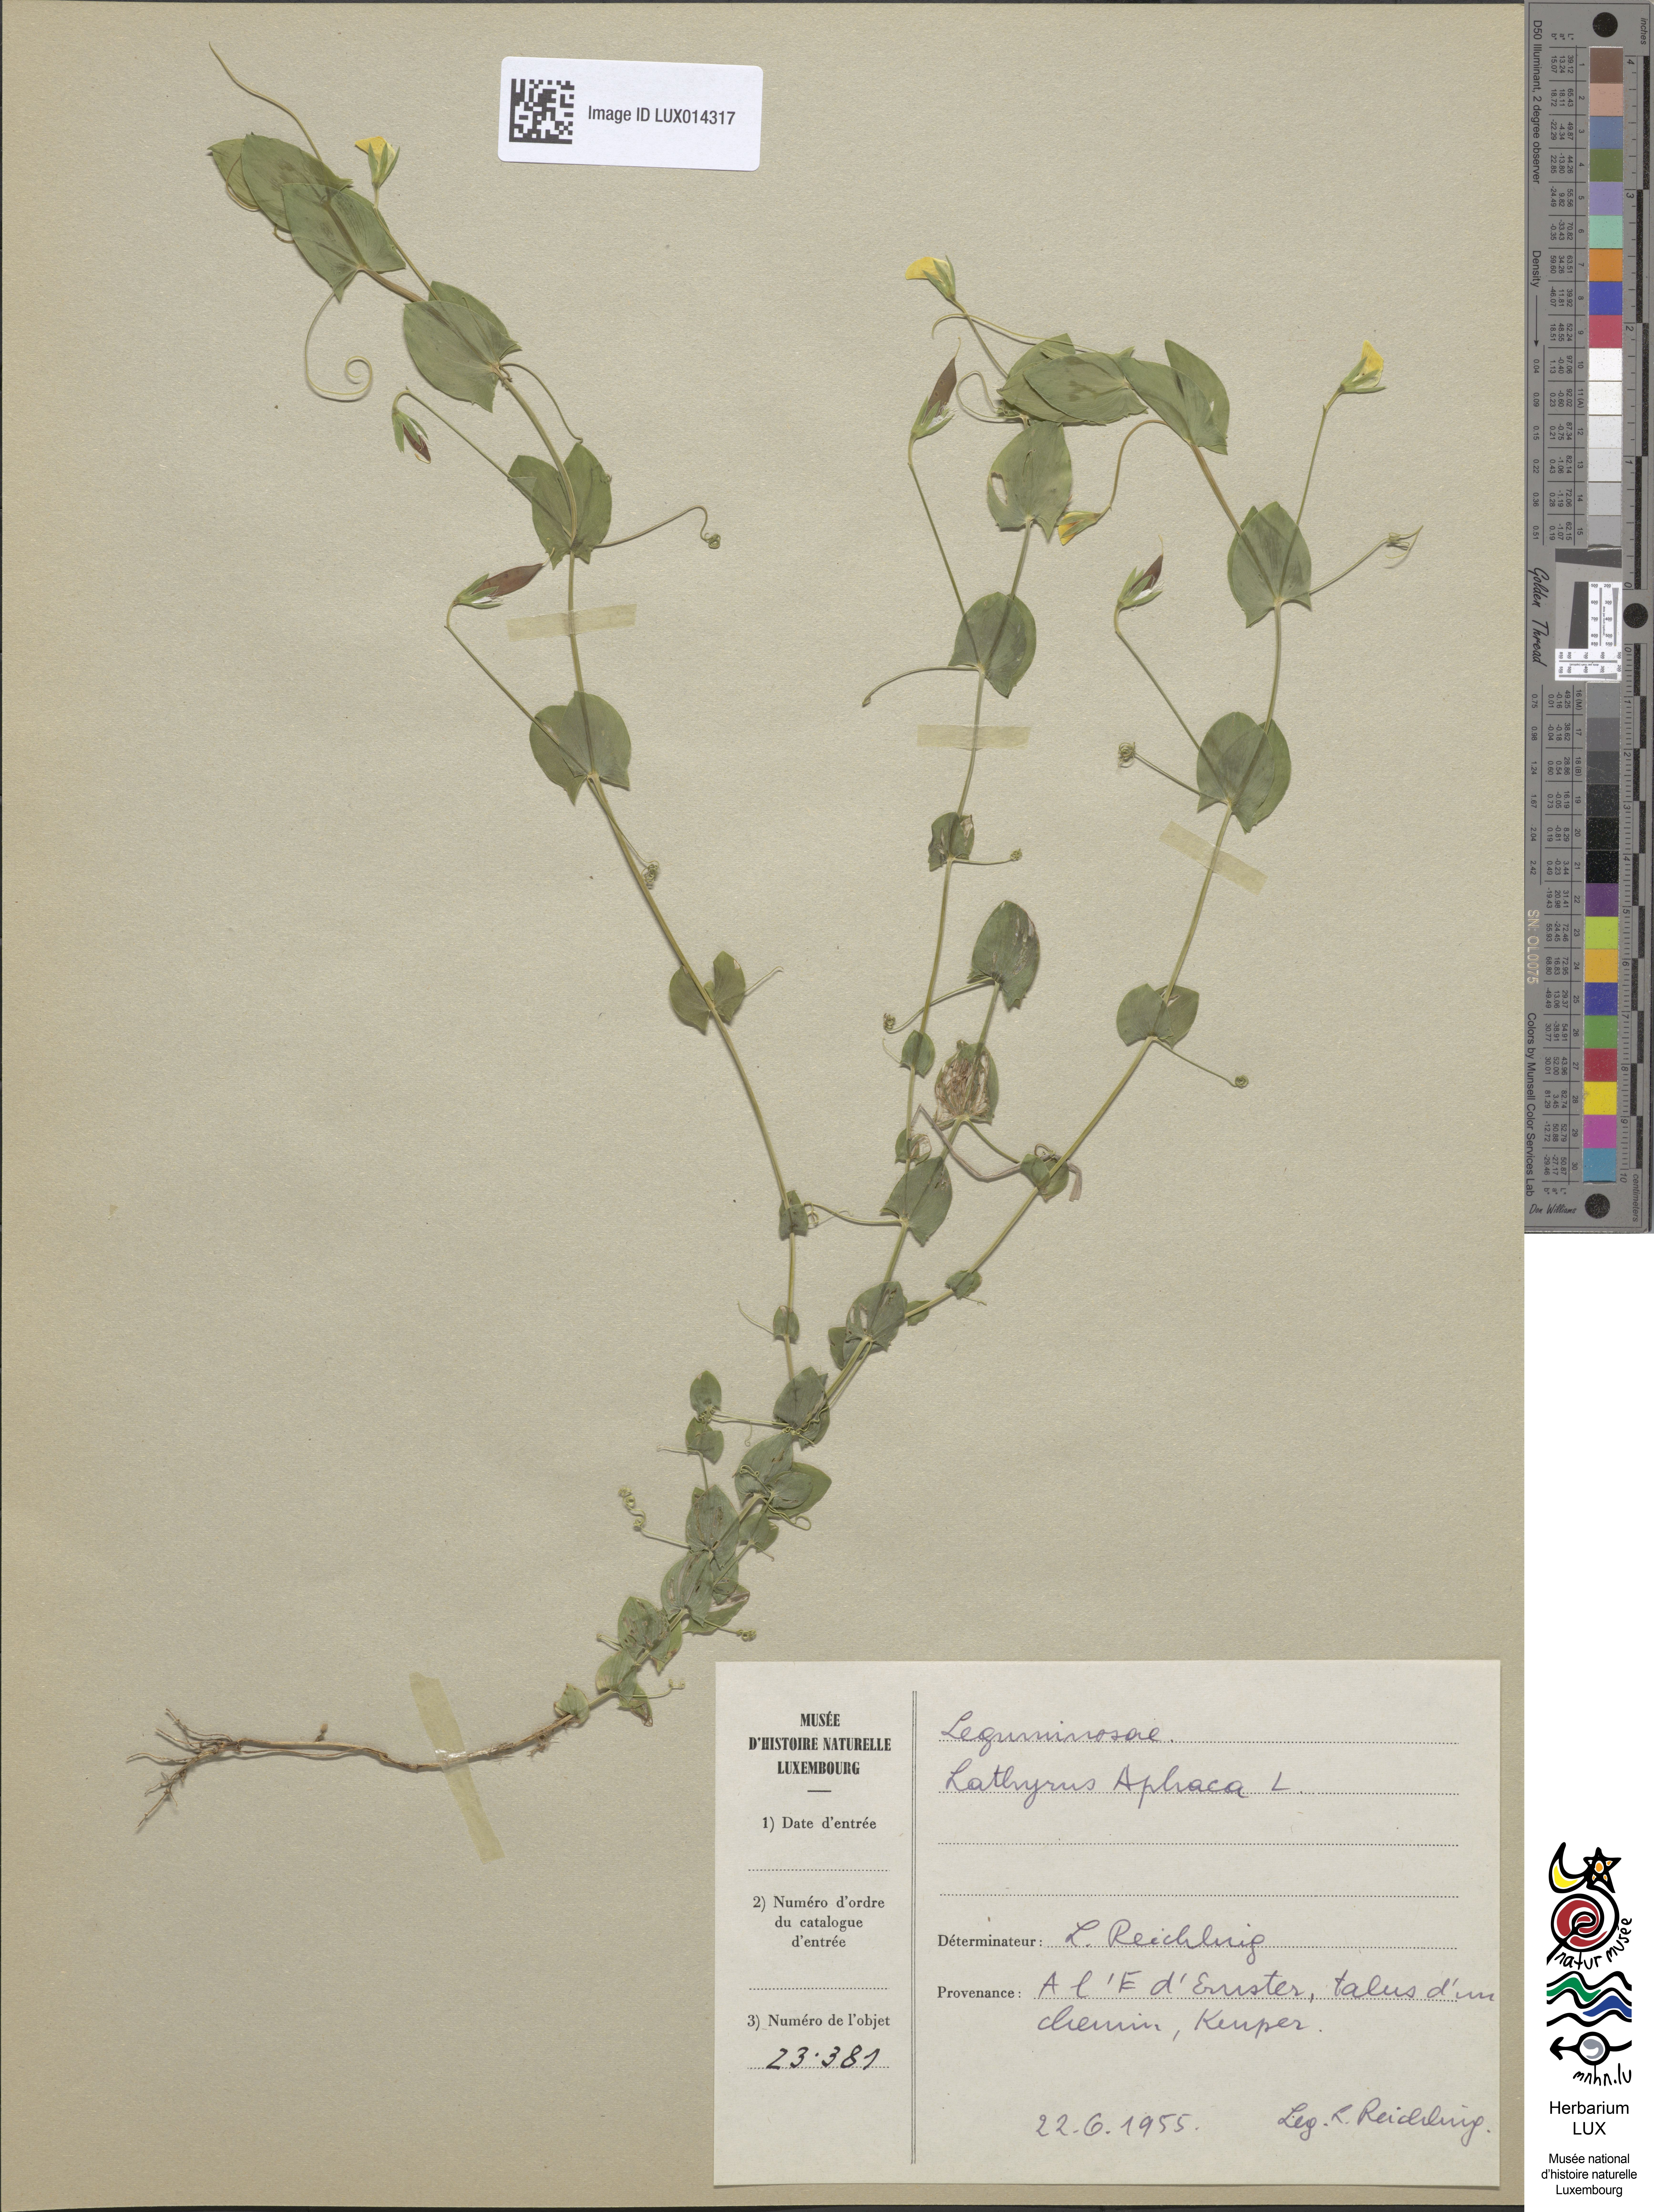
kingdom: Plantae
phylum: Tracheophyta
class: Magnoliopsida
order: Fabales
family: Fabaceae
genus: Lathyrus
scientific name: Lathyrus aphaca
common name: Yellow vetchling
